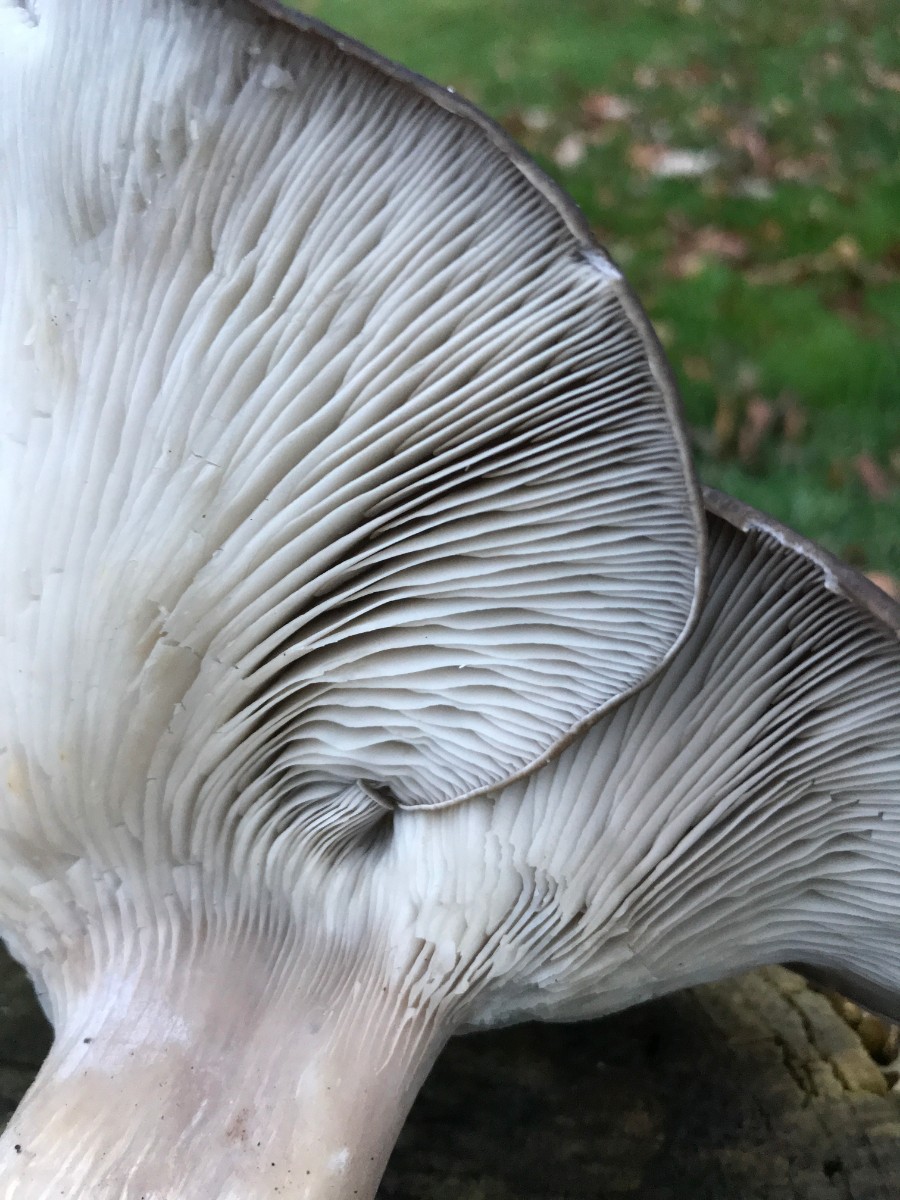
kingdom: Fungi
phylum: Basidiomycota
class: Agaricomycetes
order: Agaricales
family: Pleurotaceae
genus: Pleurotus
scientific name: Pleurotus ostreatus
